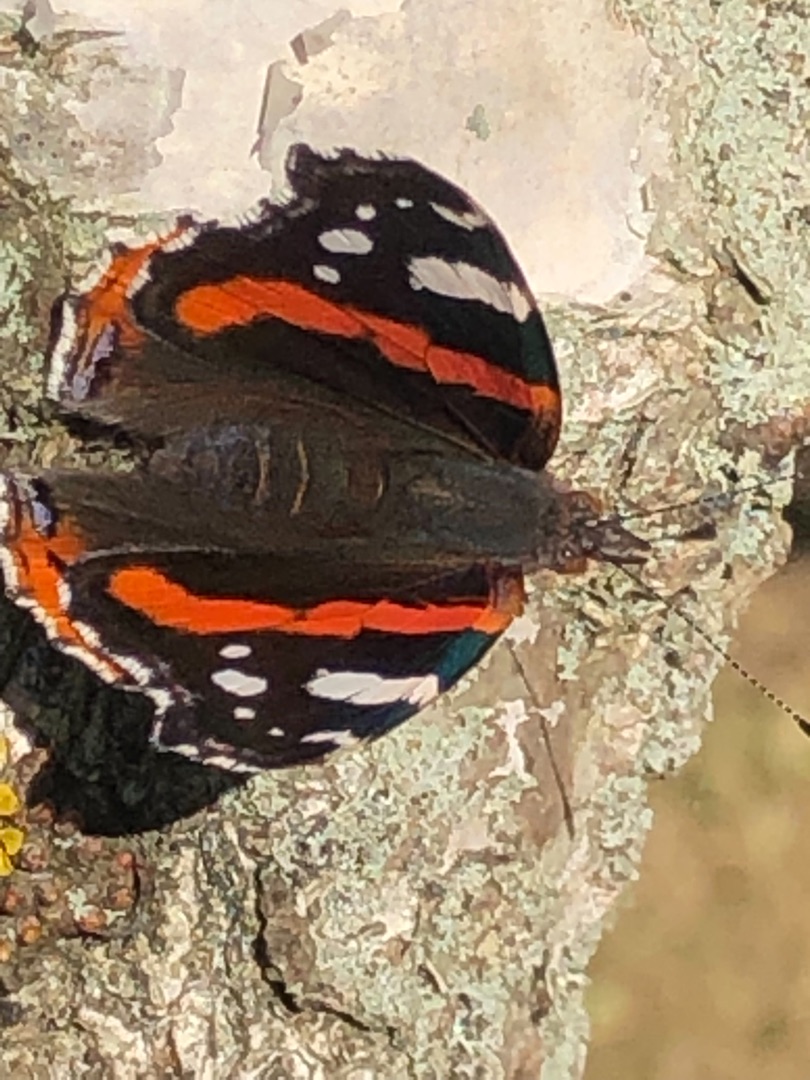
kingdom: Animalia
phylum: Arthropoda
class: Insecta
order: Lepidoptera
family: Nymphalidae
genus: Vanessa
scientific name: Vanessa atalanta
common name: Admiral
